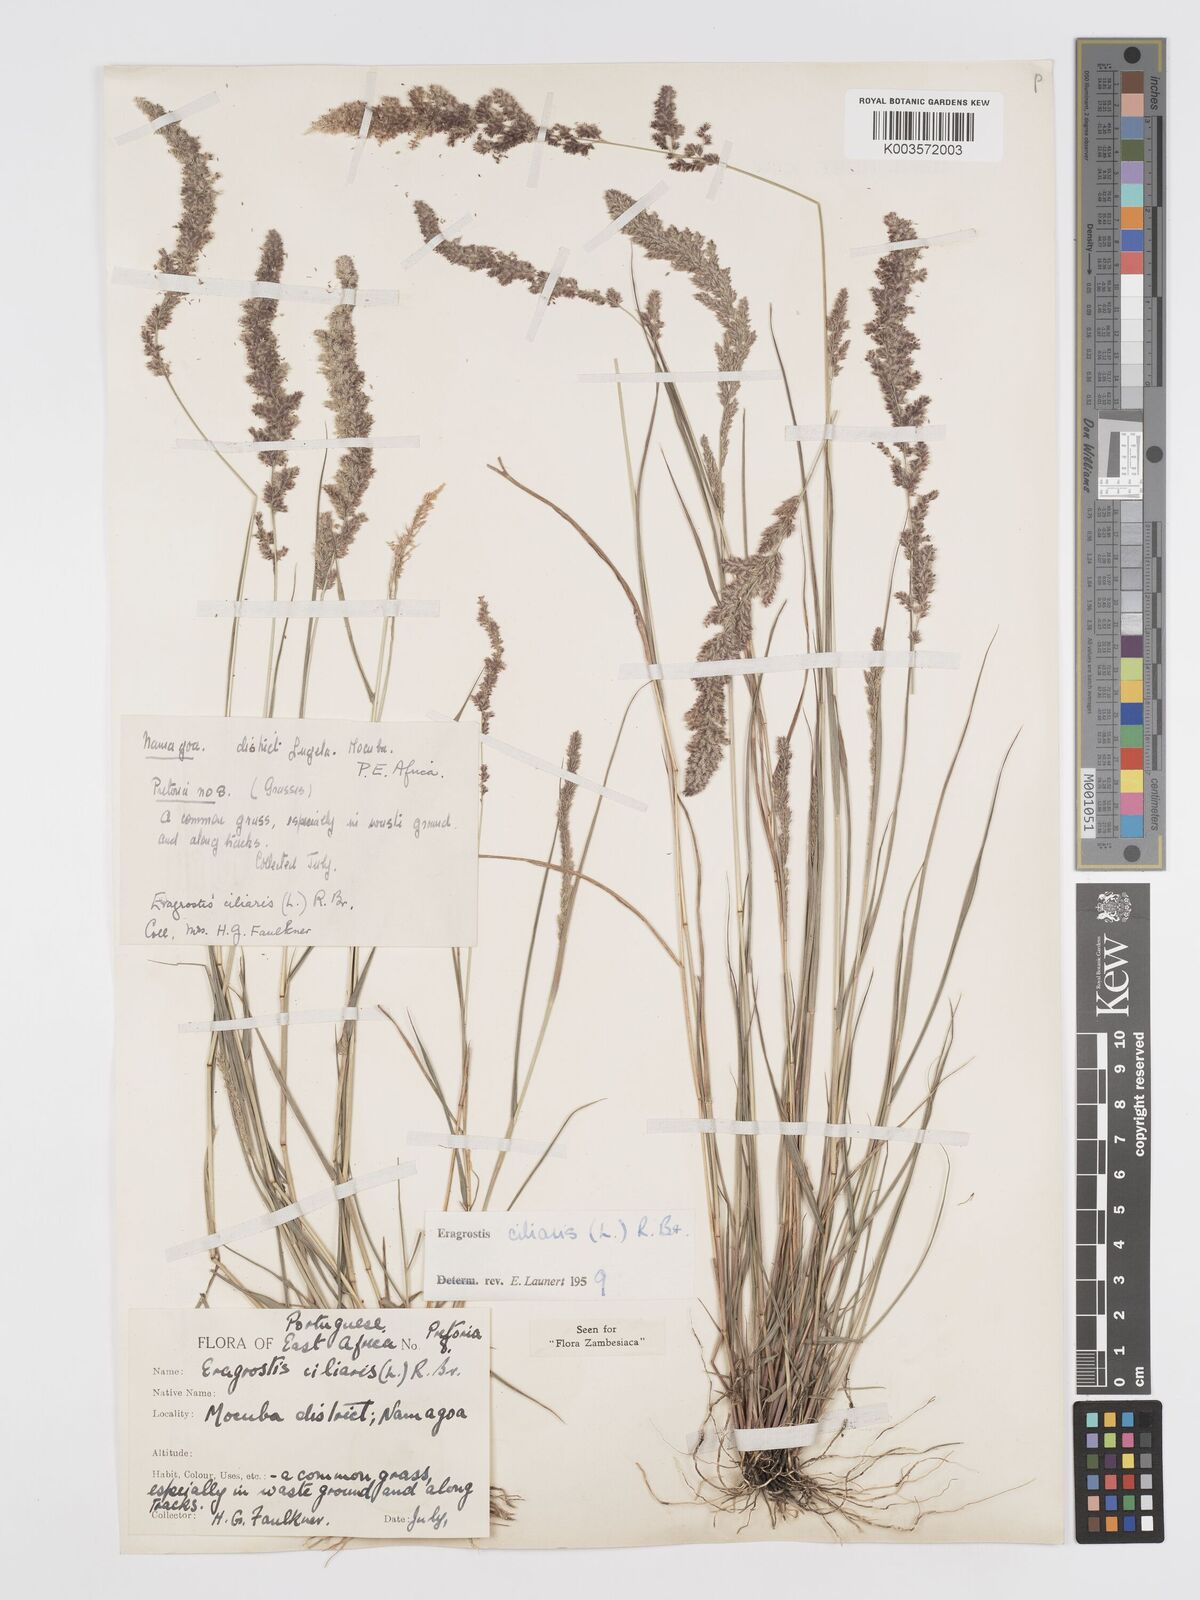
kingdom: Plantae
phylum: Tracheophyta
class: Liliopsida
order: Poales
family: Poaceae
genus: Eragrostis
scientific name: Eragrostis ciliaris
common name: Gophertail lovegrass
